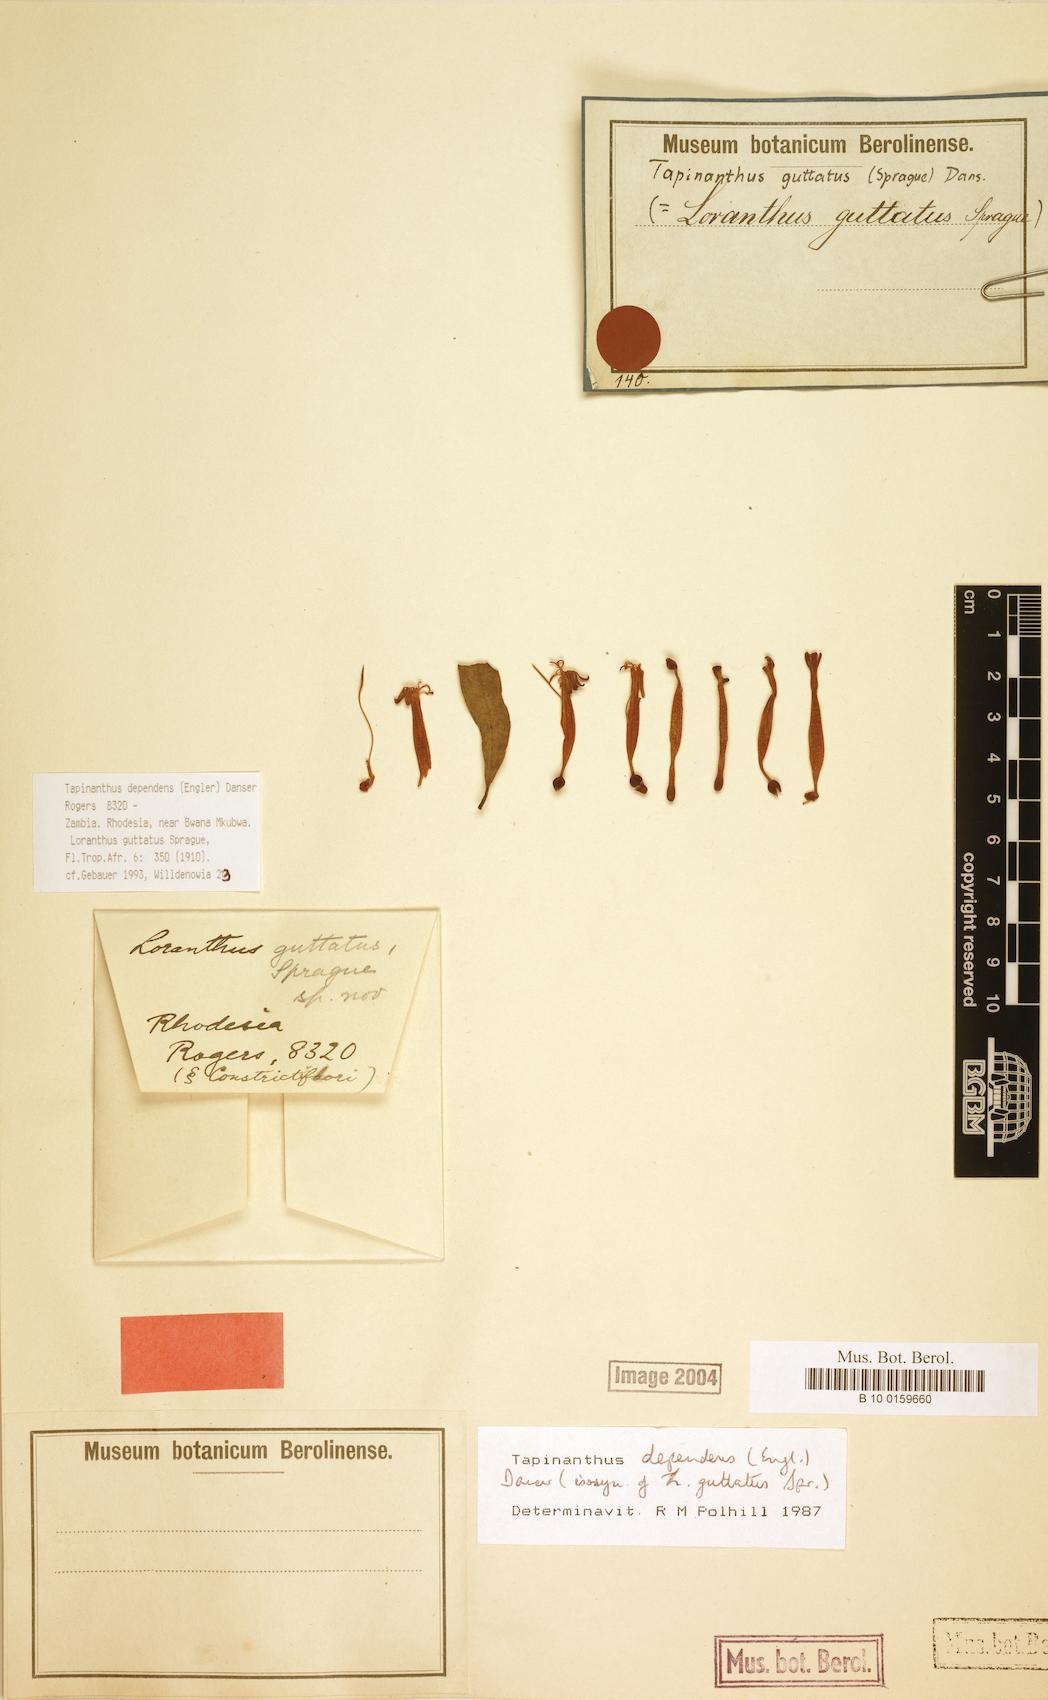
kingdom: Plantae
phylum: Tracheophyta
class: Magnoliopsida
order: Santalales
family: Loranthaceae
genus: Tapinanthus
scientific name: Tapinanthus dependens
